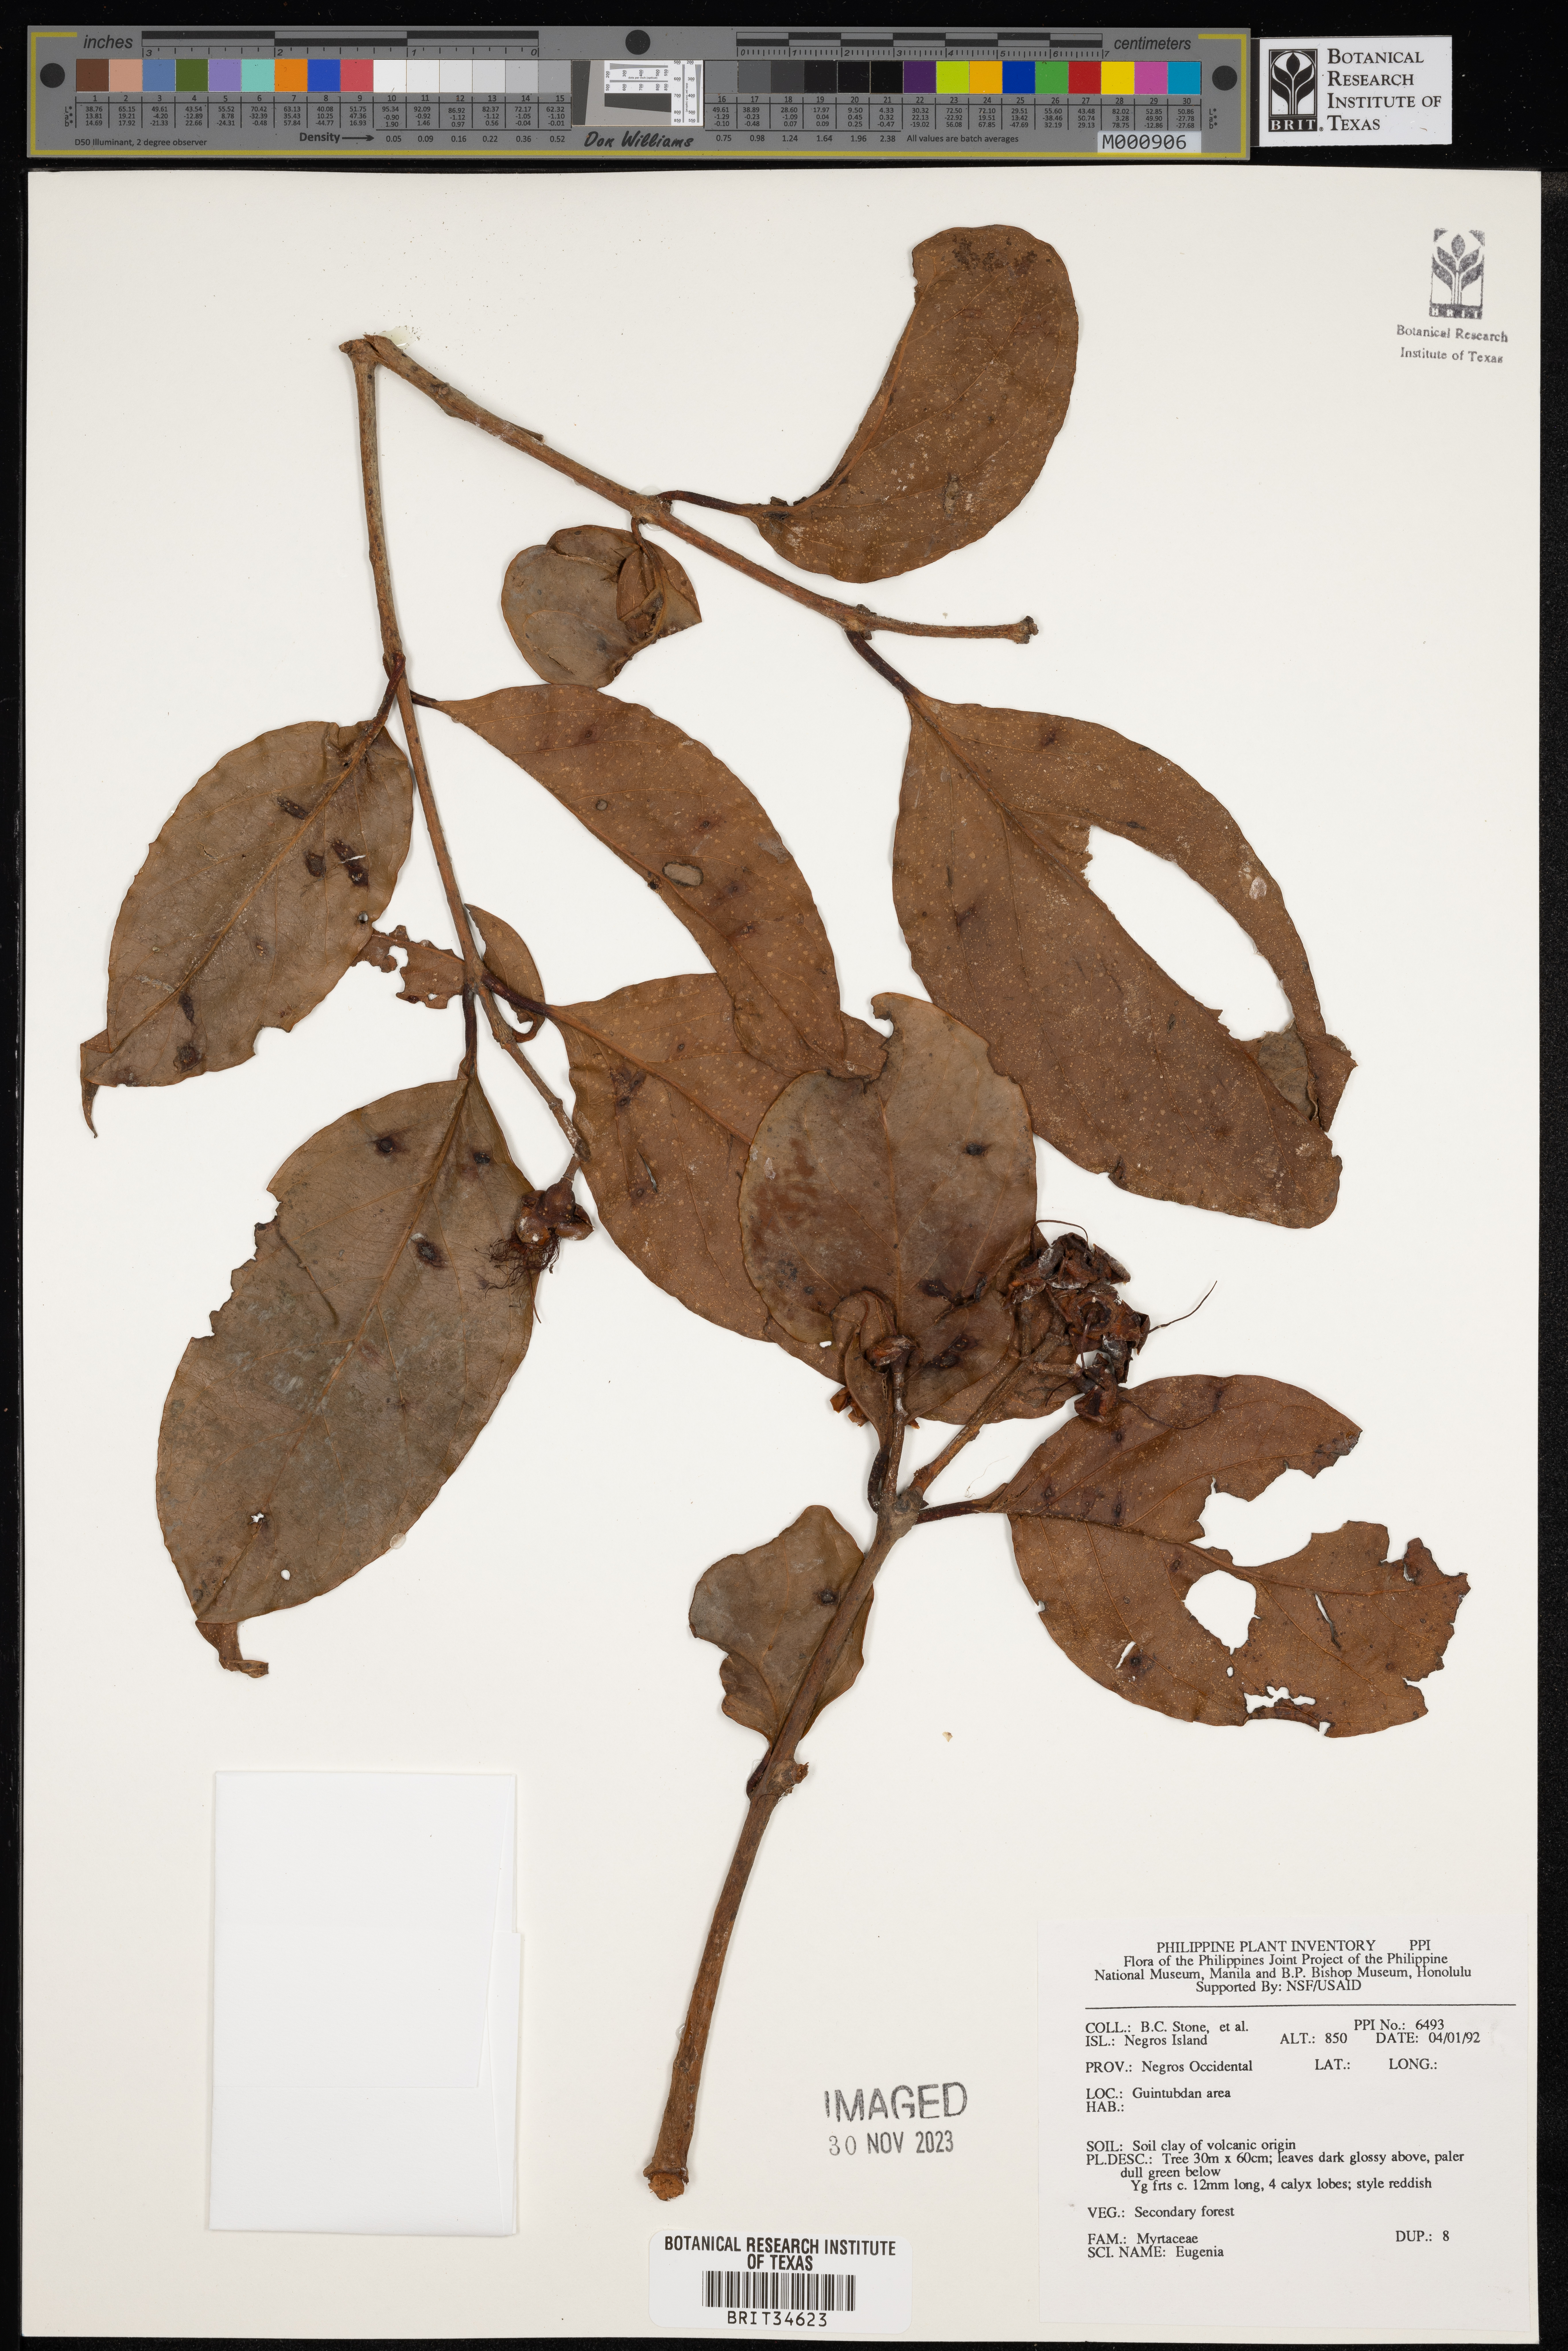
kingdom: Plantae
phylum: Tracheophyta
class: Magnoliopsida
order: Myrtales
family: Myrtaceae
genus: Eugenia
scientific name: Eugenia
